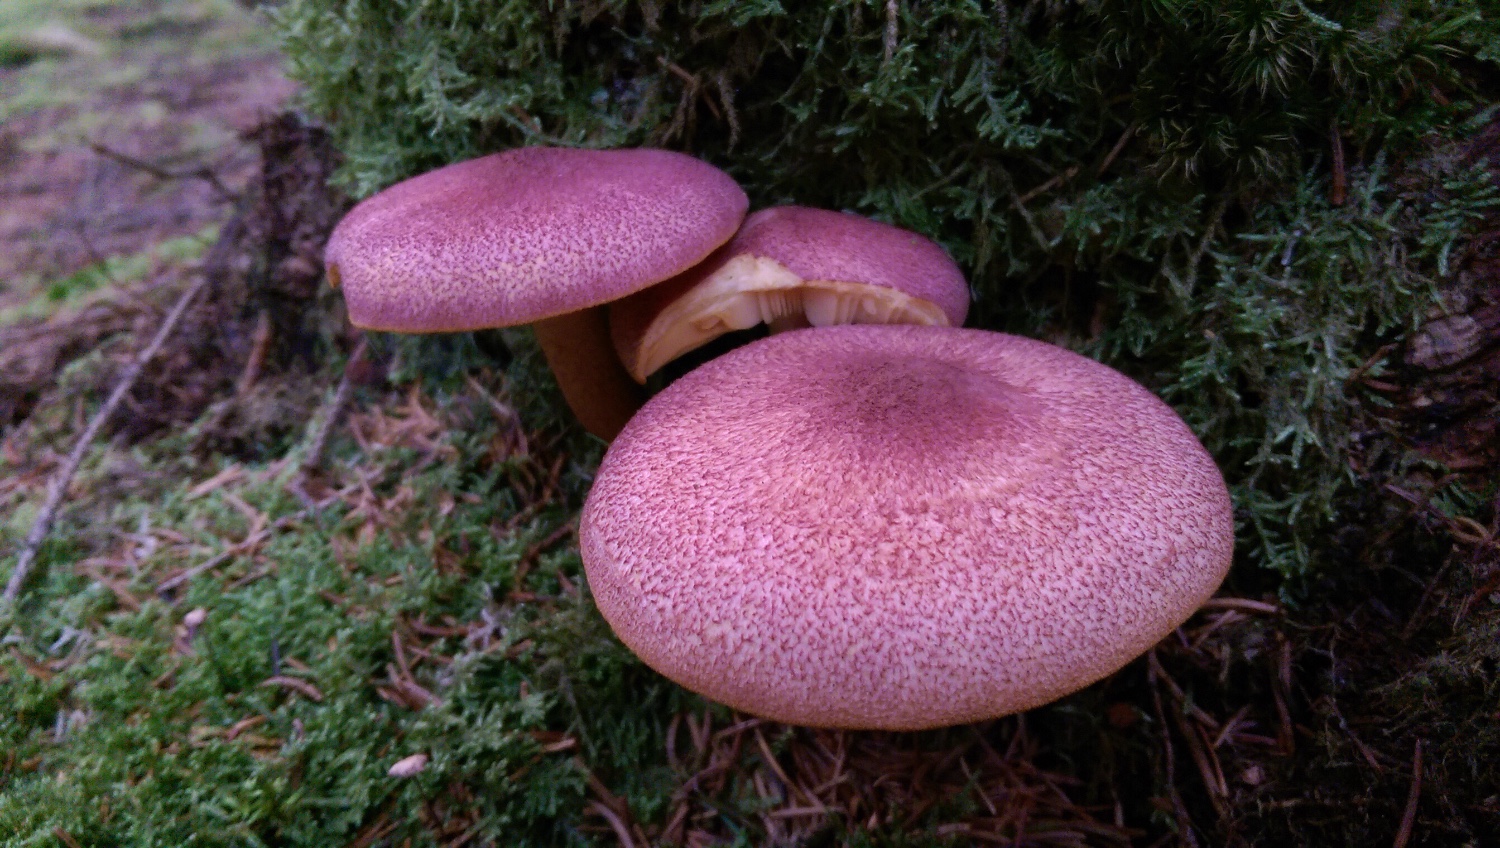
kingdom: Fungi
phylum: Basidiomycota
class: Agaricomycetes
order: Agaricales
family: Tricholomataceae
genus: Tricholomopsis
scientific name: Tricholomopsis rutilans
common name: purpur-væbnerhat
